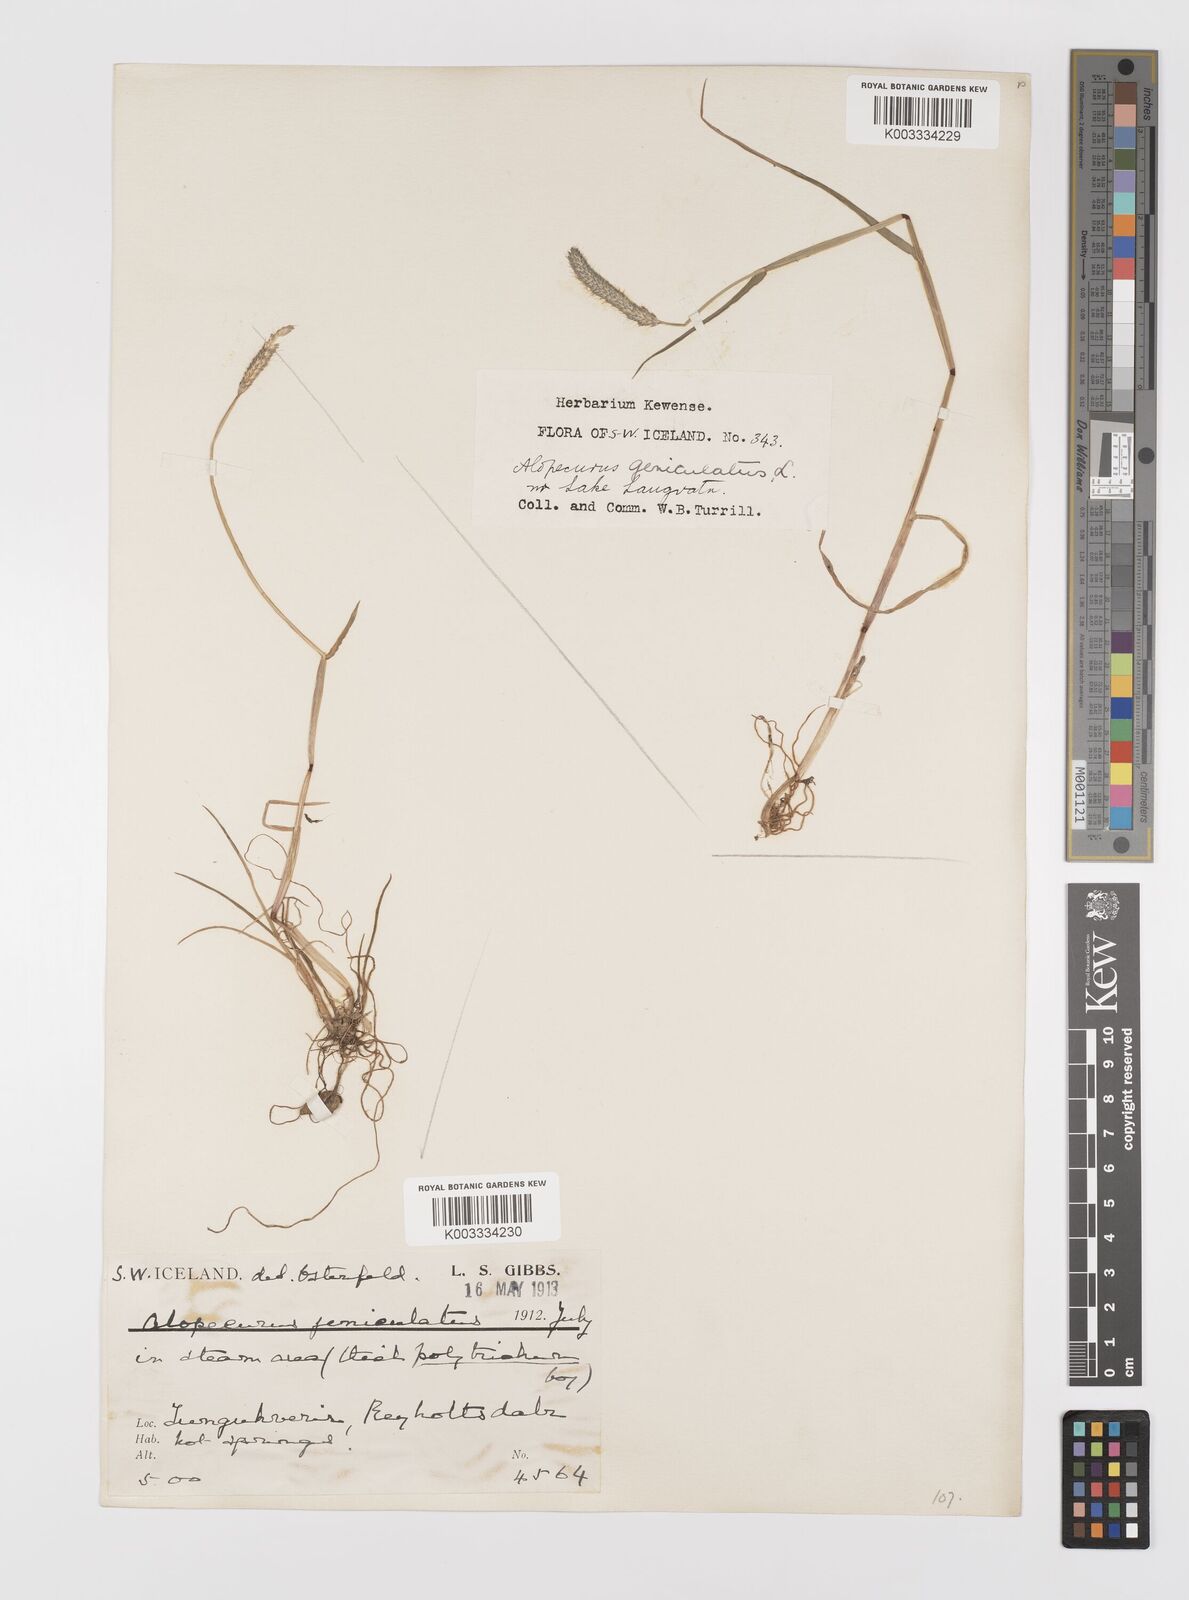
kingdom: Plantae
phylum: Tracheophyta
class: Liliopsida
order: Poales
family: Poaceae
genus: Alopecurus
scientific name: Alopecurus geniculatus
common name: Water foxtail
